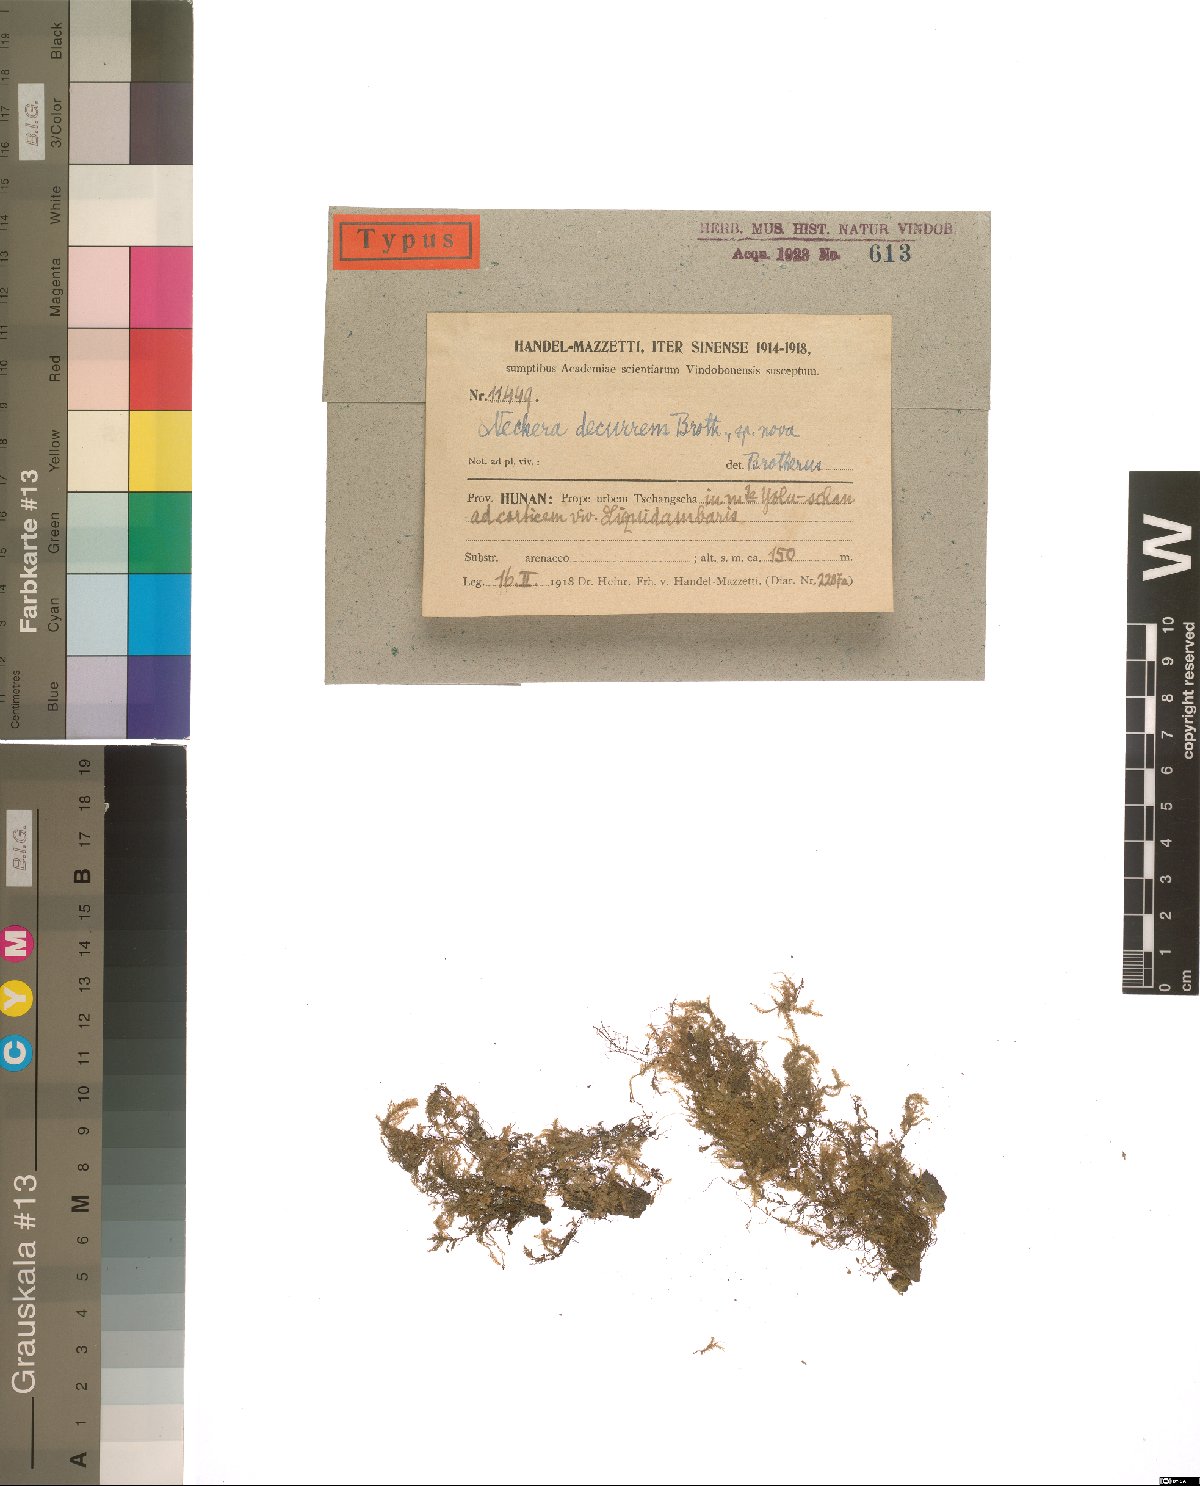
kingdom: Plantae
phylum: Bryophyta
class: Bryopsida
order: Hypnales
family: Neckeraceae
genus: Forsstroemia
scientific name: Forsstroemia fauriei
